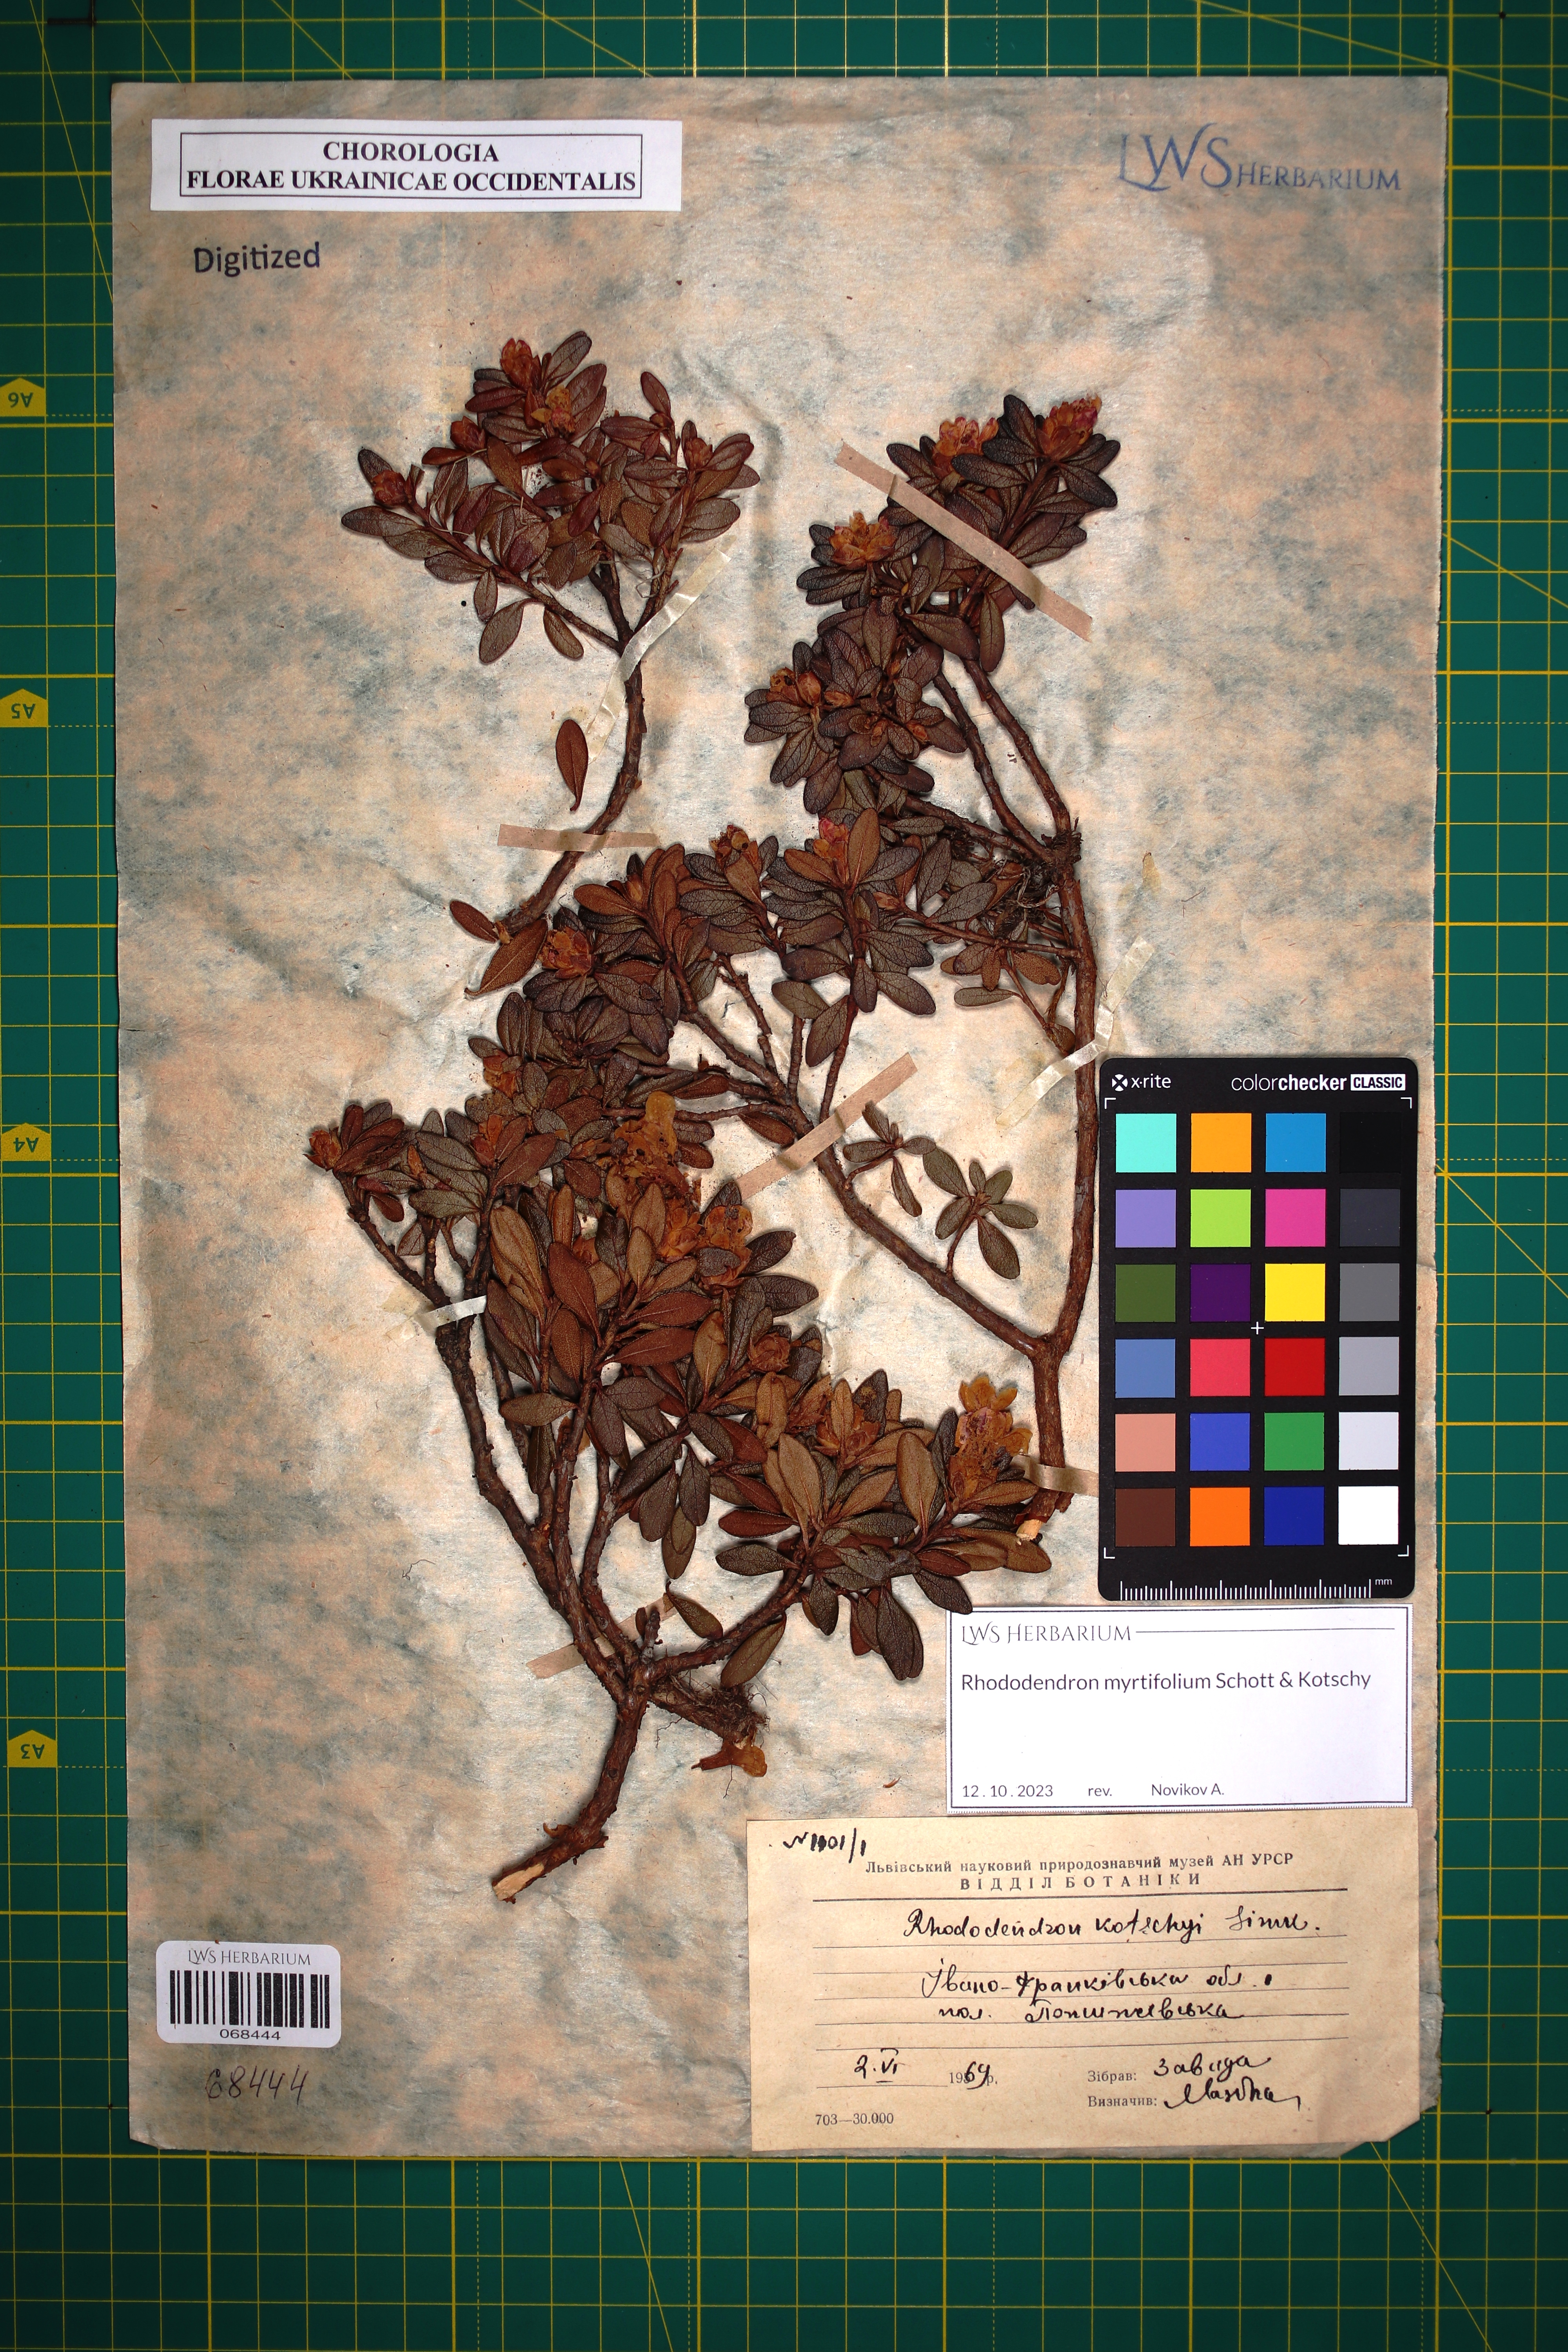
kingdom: Plantae
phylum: Tracheophyta
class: Magnoliopsida
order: Ericales
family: Ericaceae
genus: Rhododendron
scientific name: Rhododendron kotschyi
